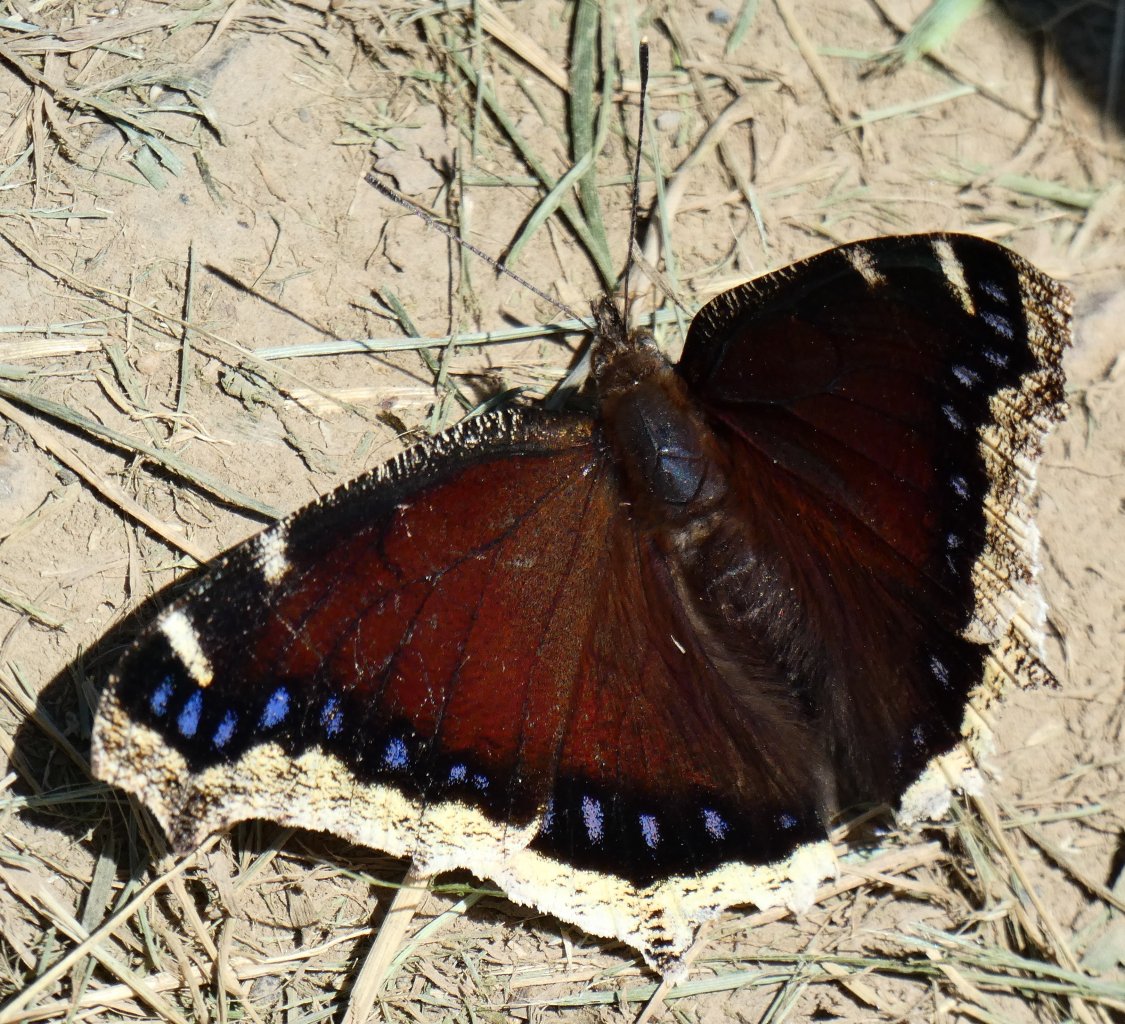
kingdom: Animalia
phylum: Arthropoda
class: Insecta
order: Lepidoptera
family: Nymphalidae
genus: Nymphalis
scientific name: Nymphalis antiopa
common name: Mourning Cloak
